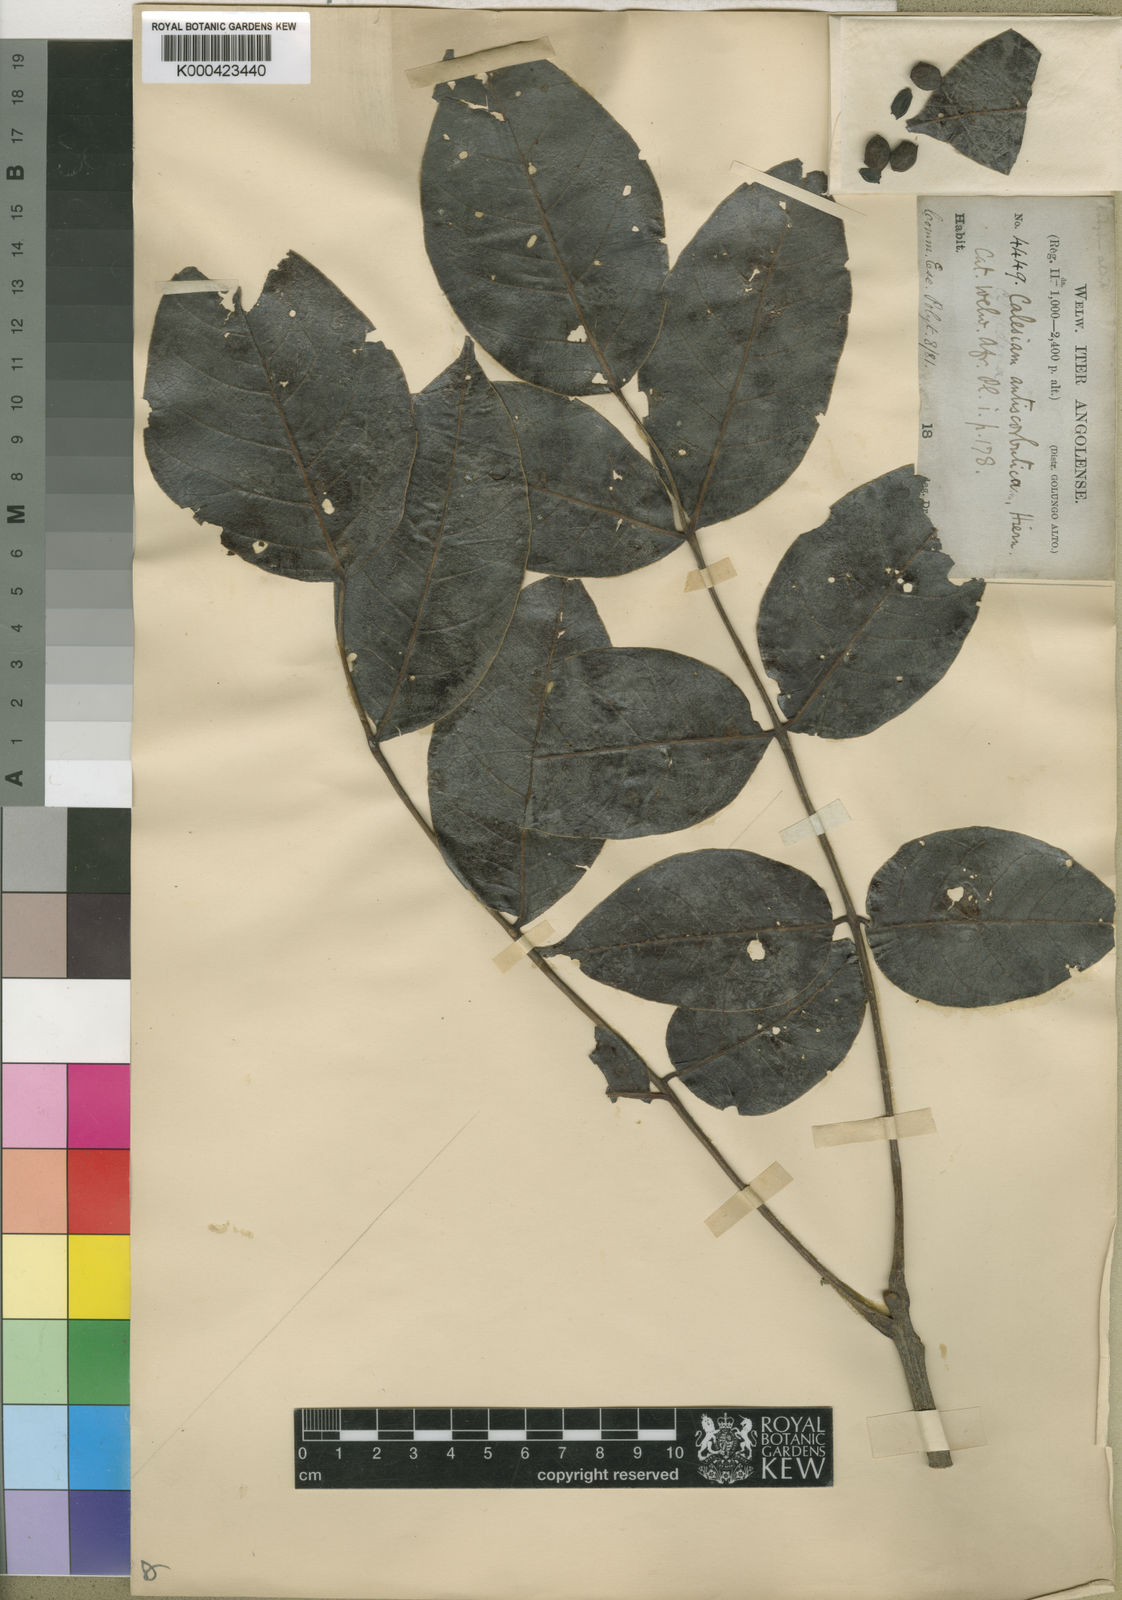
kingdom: Plantae
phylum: Tracheophyta
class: Magnoliopsida
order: Sapindales
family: Anacardiaceae
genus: Lannea
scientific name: Lannea antiscorbutica
